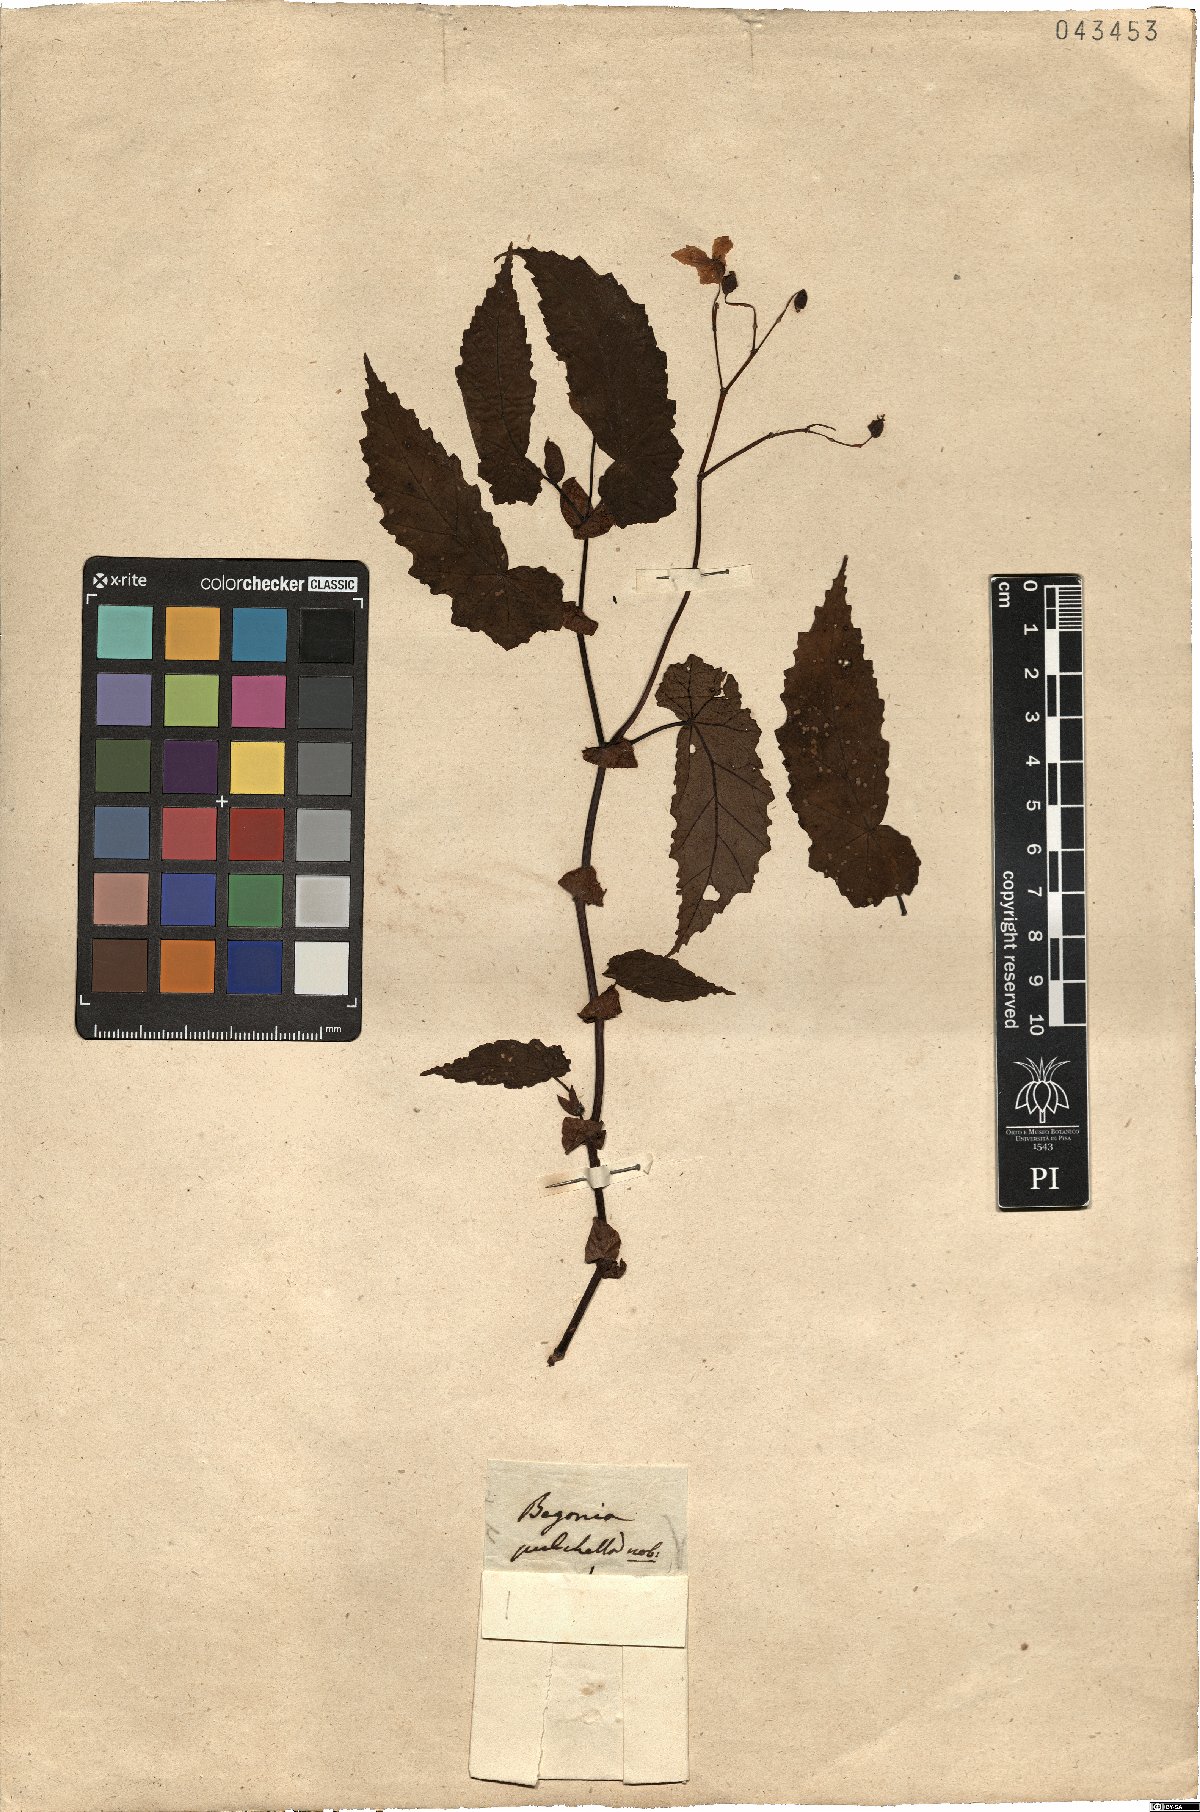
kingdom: Plantae
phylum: Tracheophyta
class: Magnoliopsida
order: Cucurbitales
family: Begoniaceae
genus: Begonia
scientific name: Begonia pulchella
